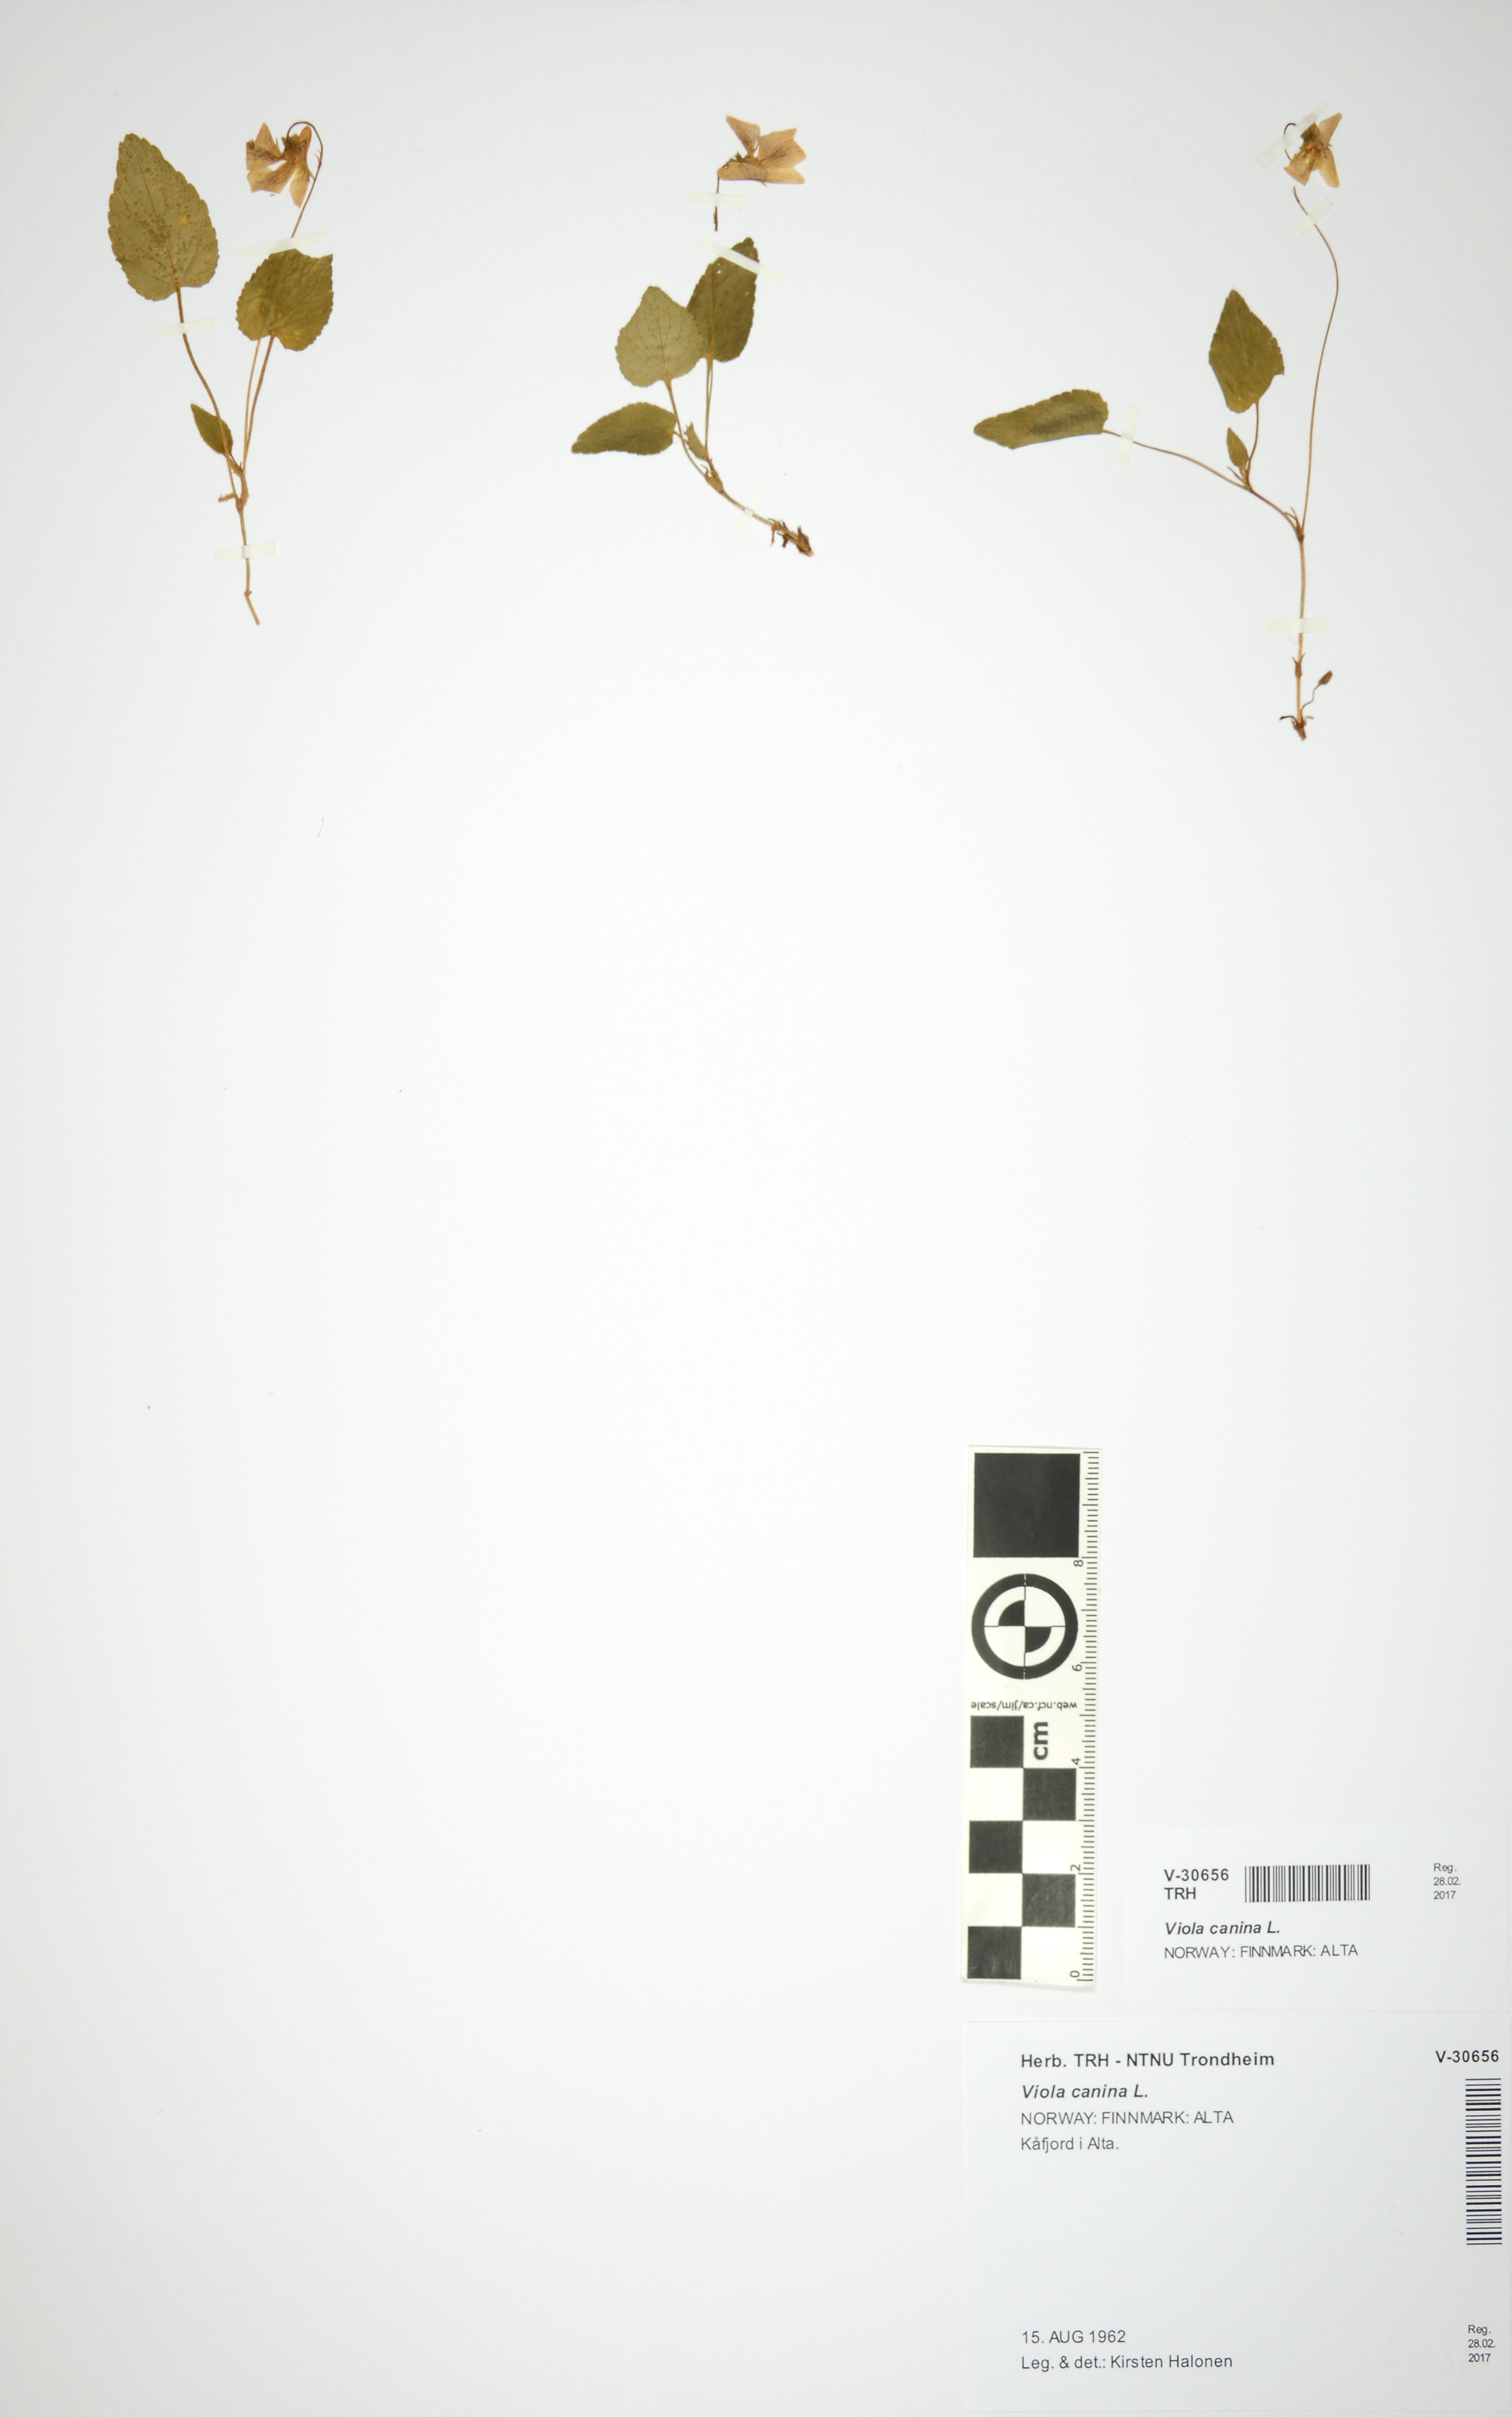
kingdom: Plantae
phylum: Tracheophyta
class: Magnoliopsida
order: Malpighiales
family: Violaceae
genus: Viola
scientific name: Viola canina
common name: Heath dog-violet
